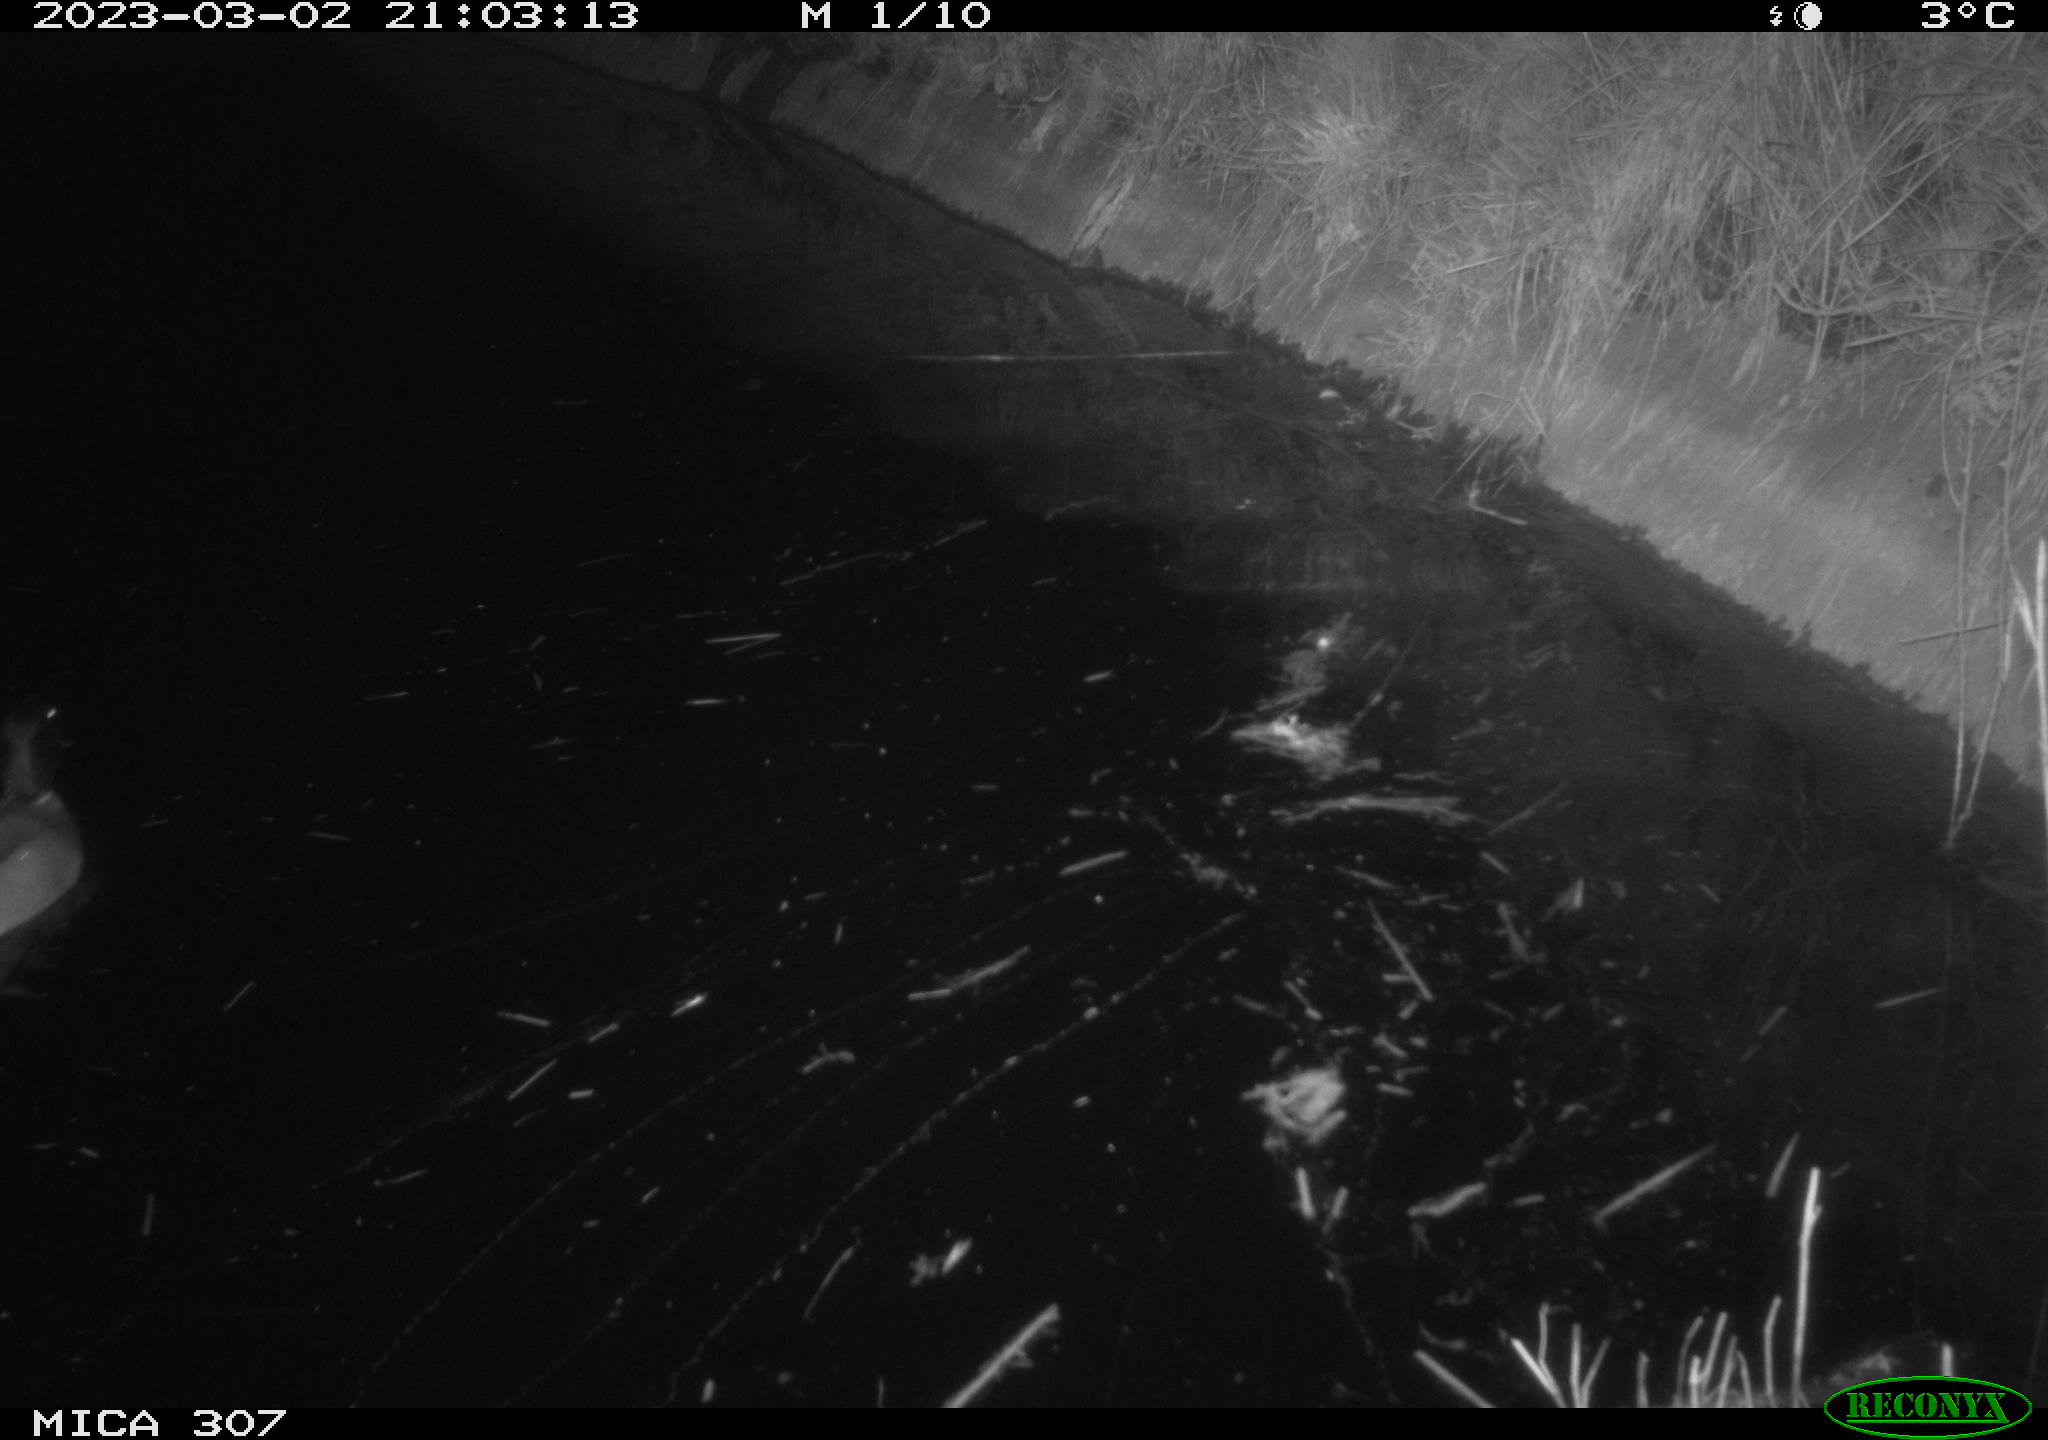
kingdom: Animalia
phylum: Chordata
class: Aves
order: Anseriformes
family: Anatidae
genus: Anas
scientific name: Anas
